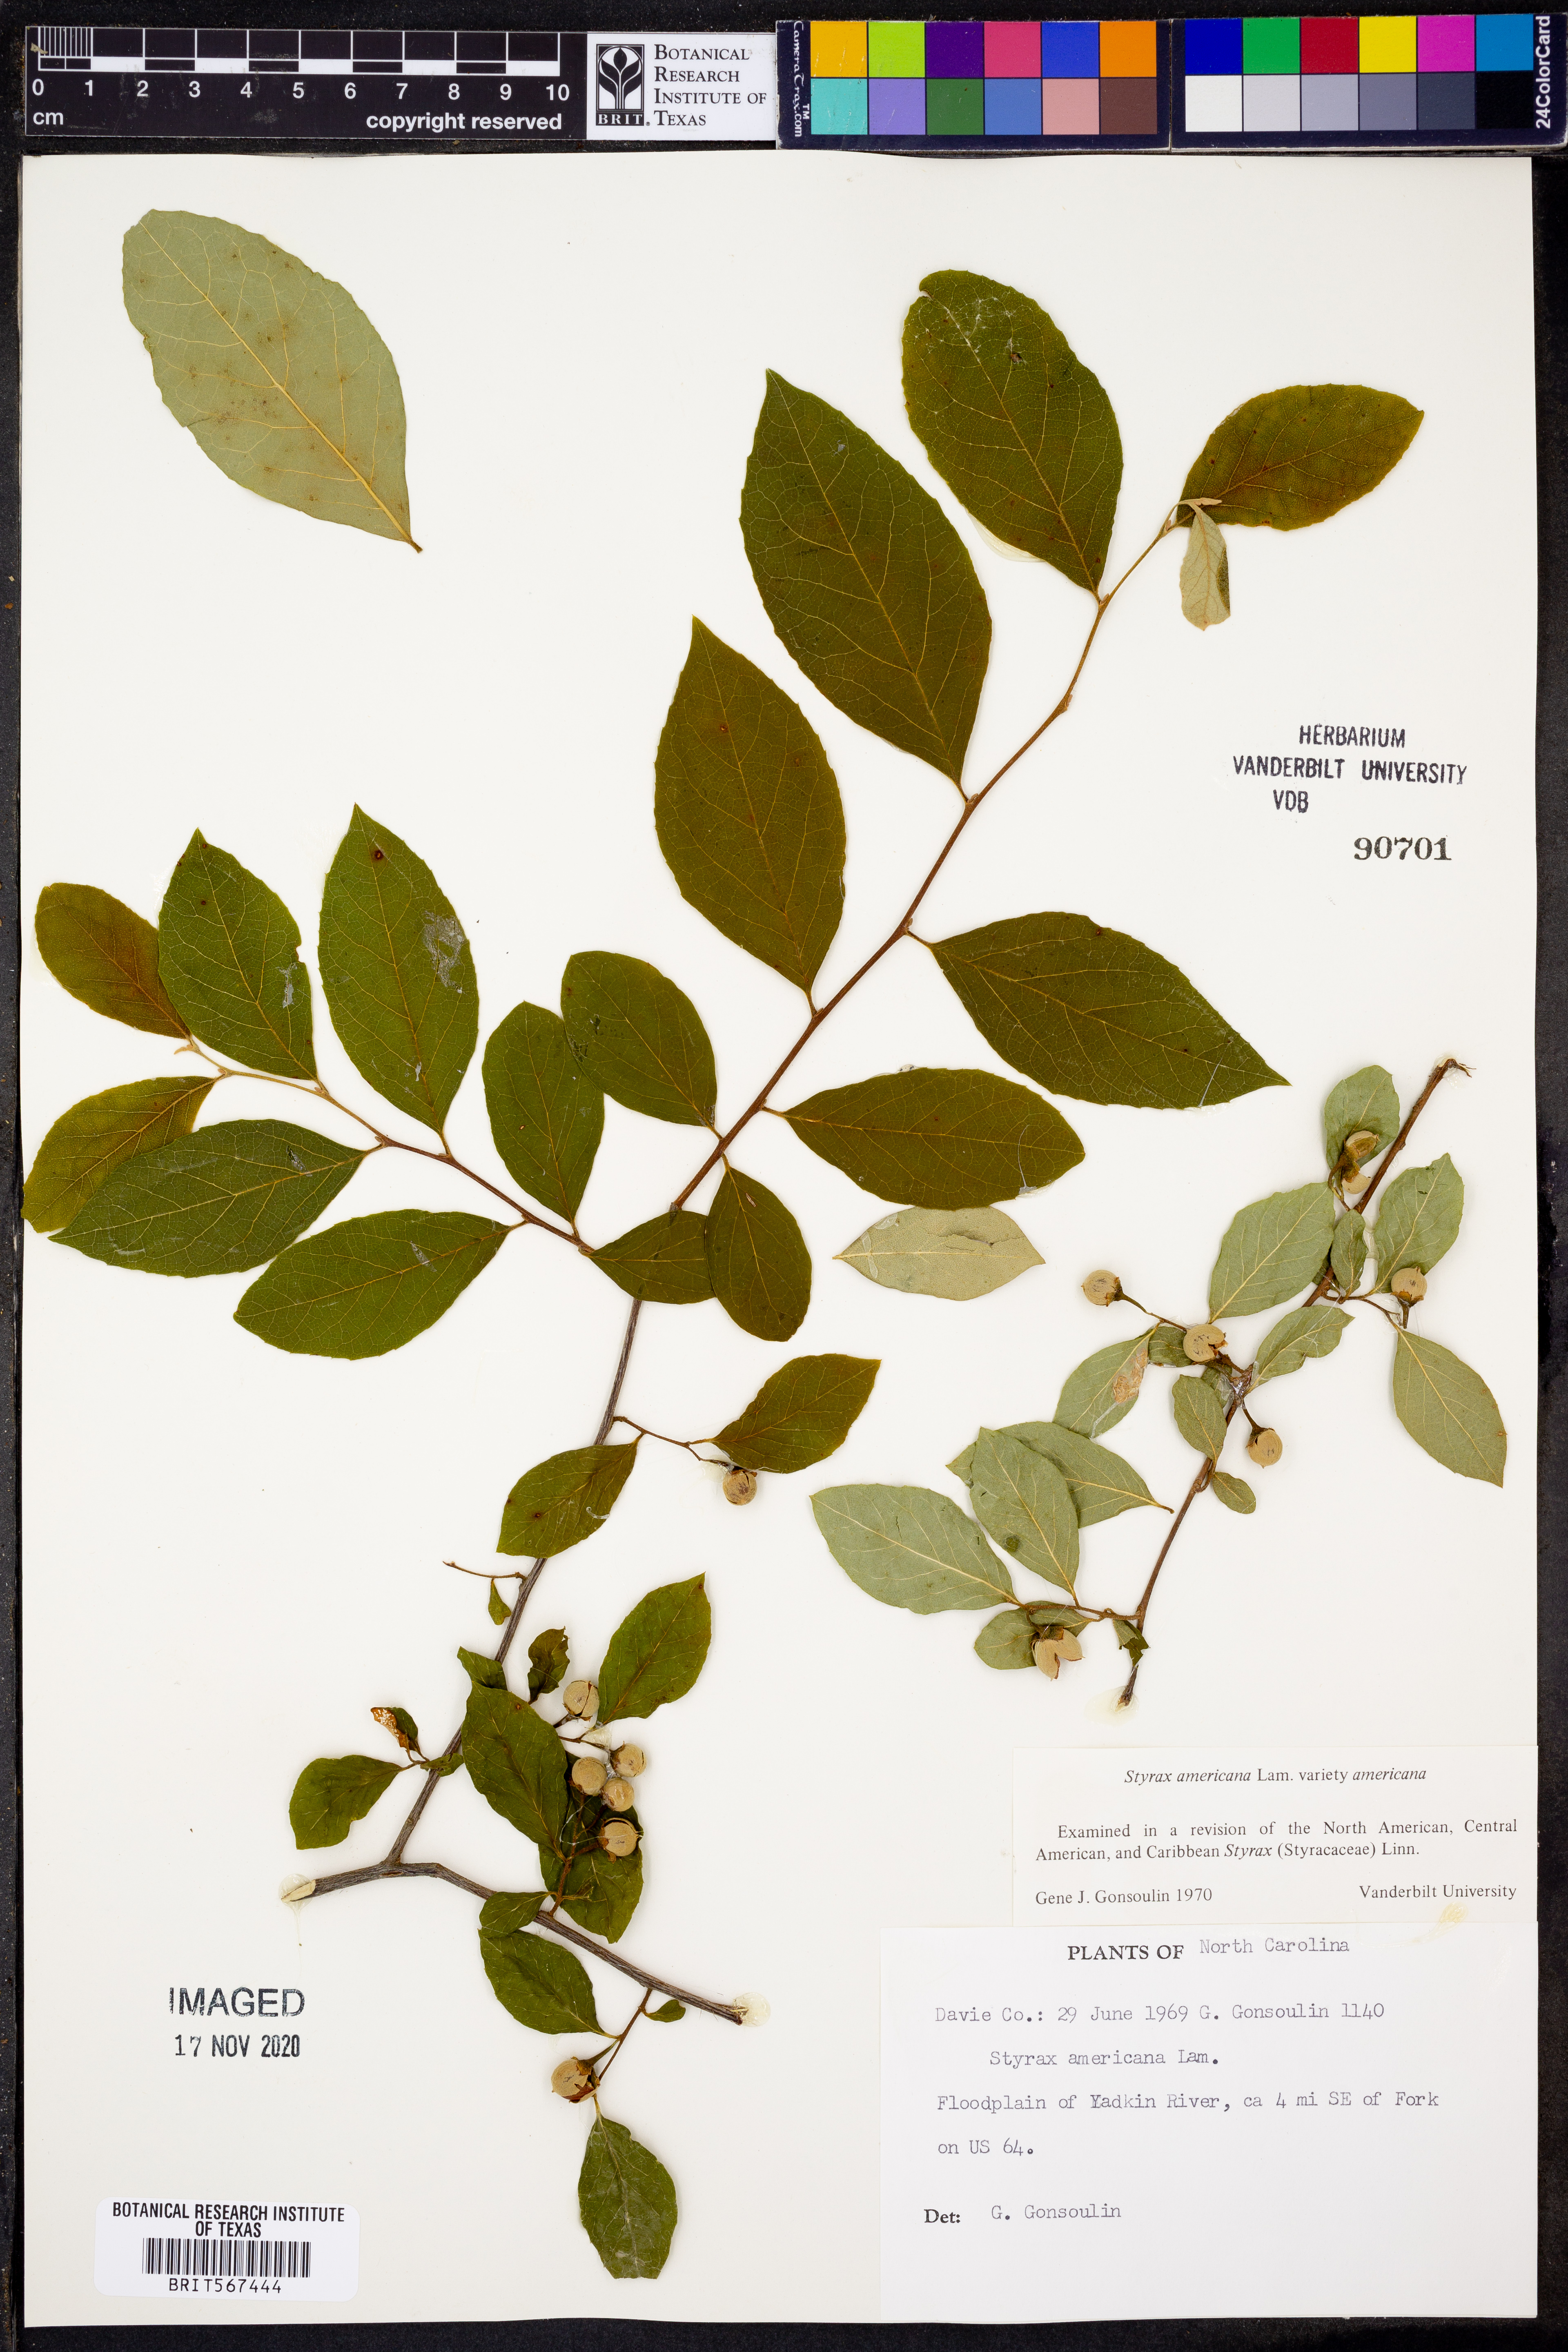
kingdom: Plantae
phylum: Tracheophyta
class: Magnoliopsida
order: Ericales
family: Styracaceae
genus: Styrax
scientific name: Styrax americanus
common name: American snowbell
